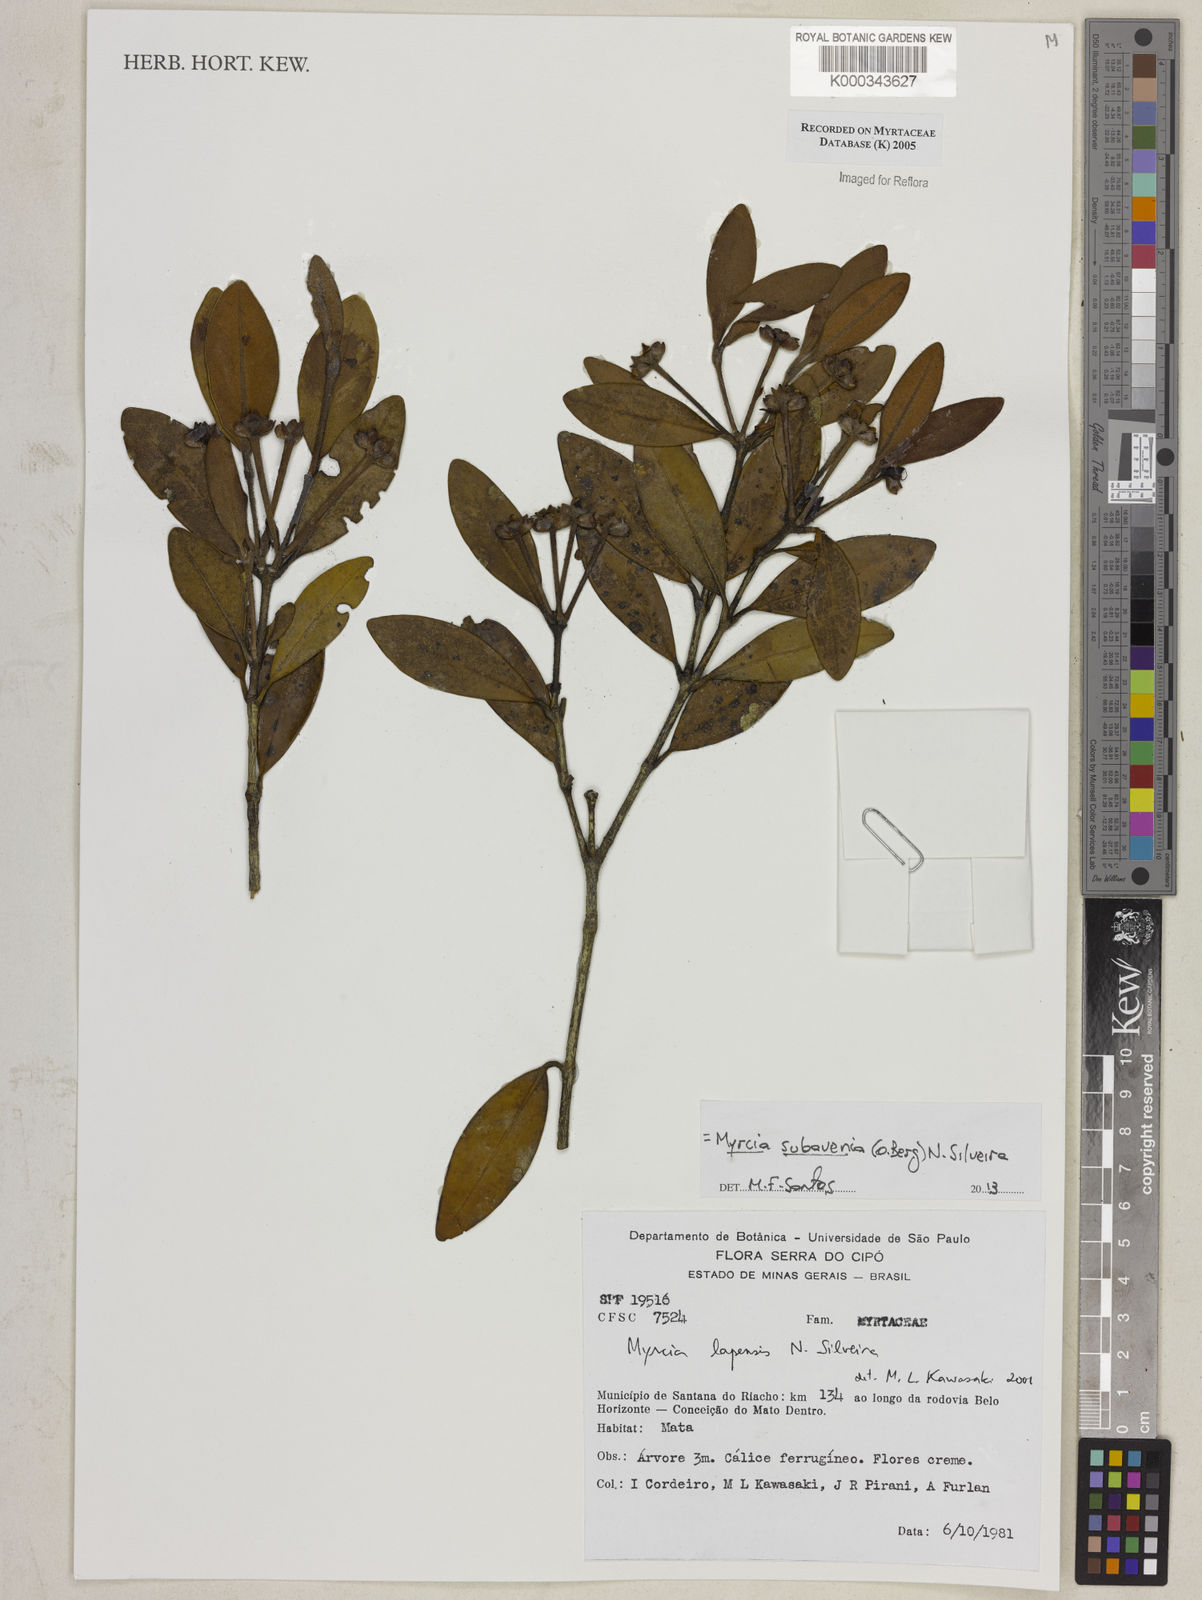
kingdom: Plantae
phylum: Tracheophyta
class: Magnoliopsida
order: Myrtales
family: Myrtaceae
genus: Myrcia
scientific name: Myrcia subavenia
